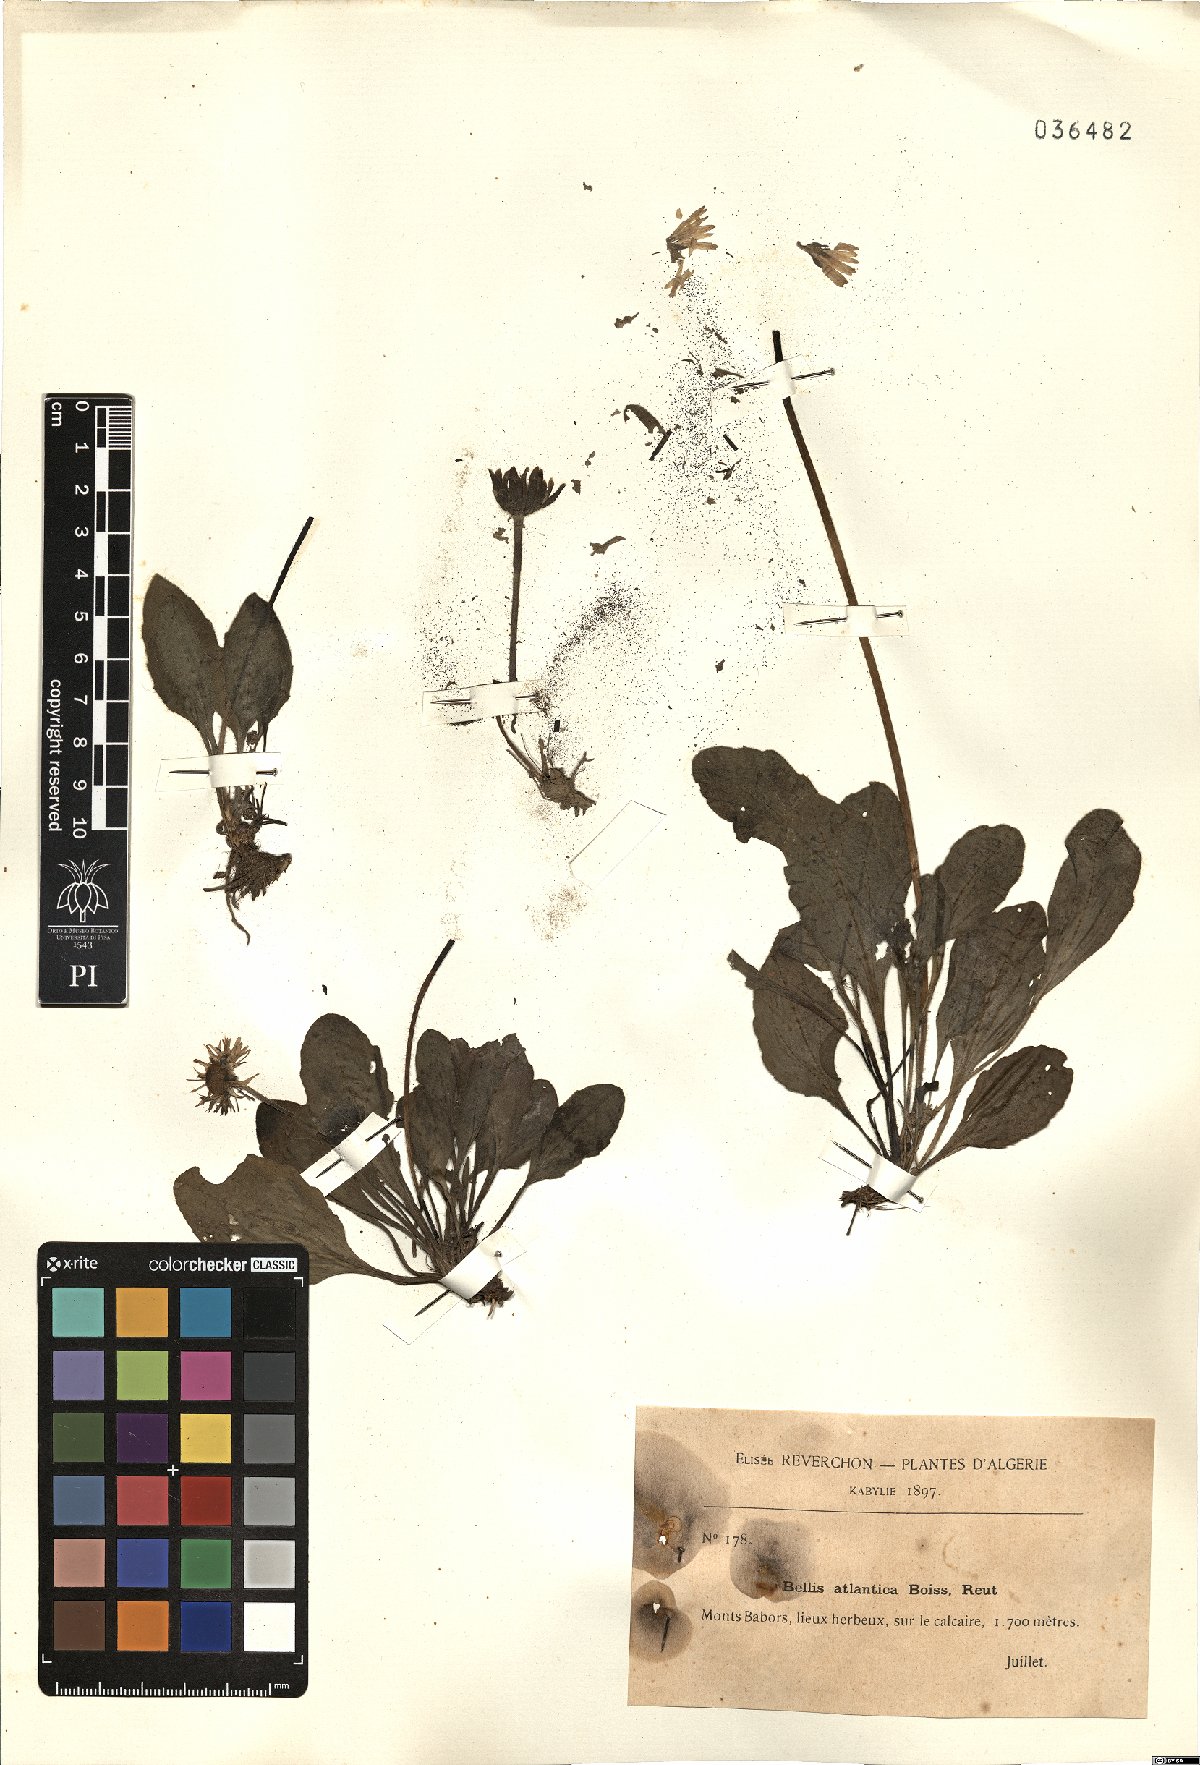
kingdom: Plantae
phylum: Tracheophyta
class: Magnoliopsida
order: Asterales
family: Asteraceae
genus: Bellis
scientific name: Bellis sylvestris
